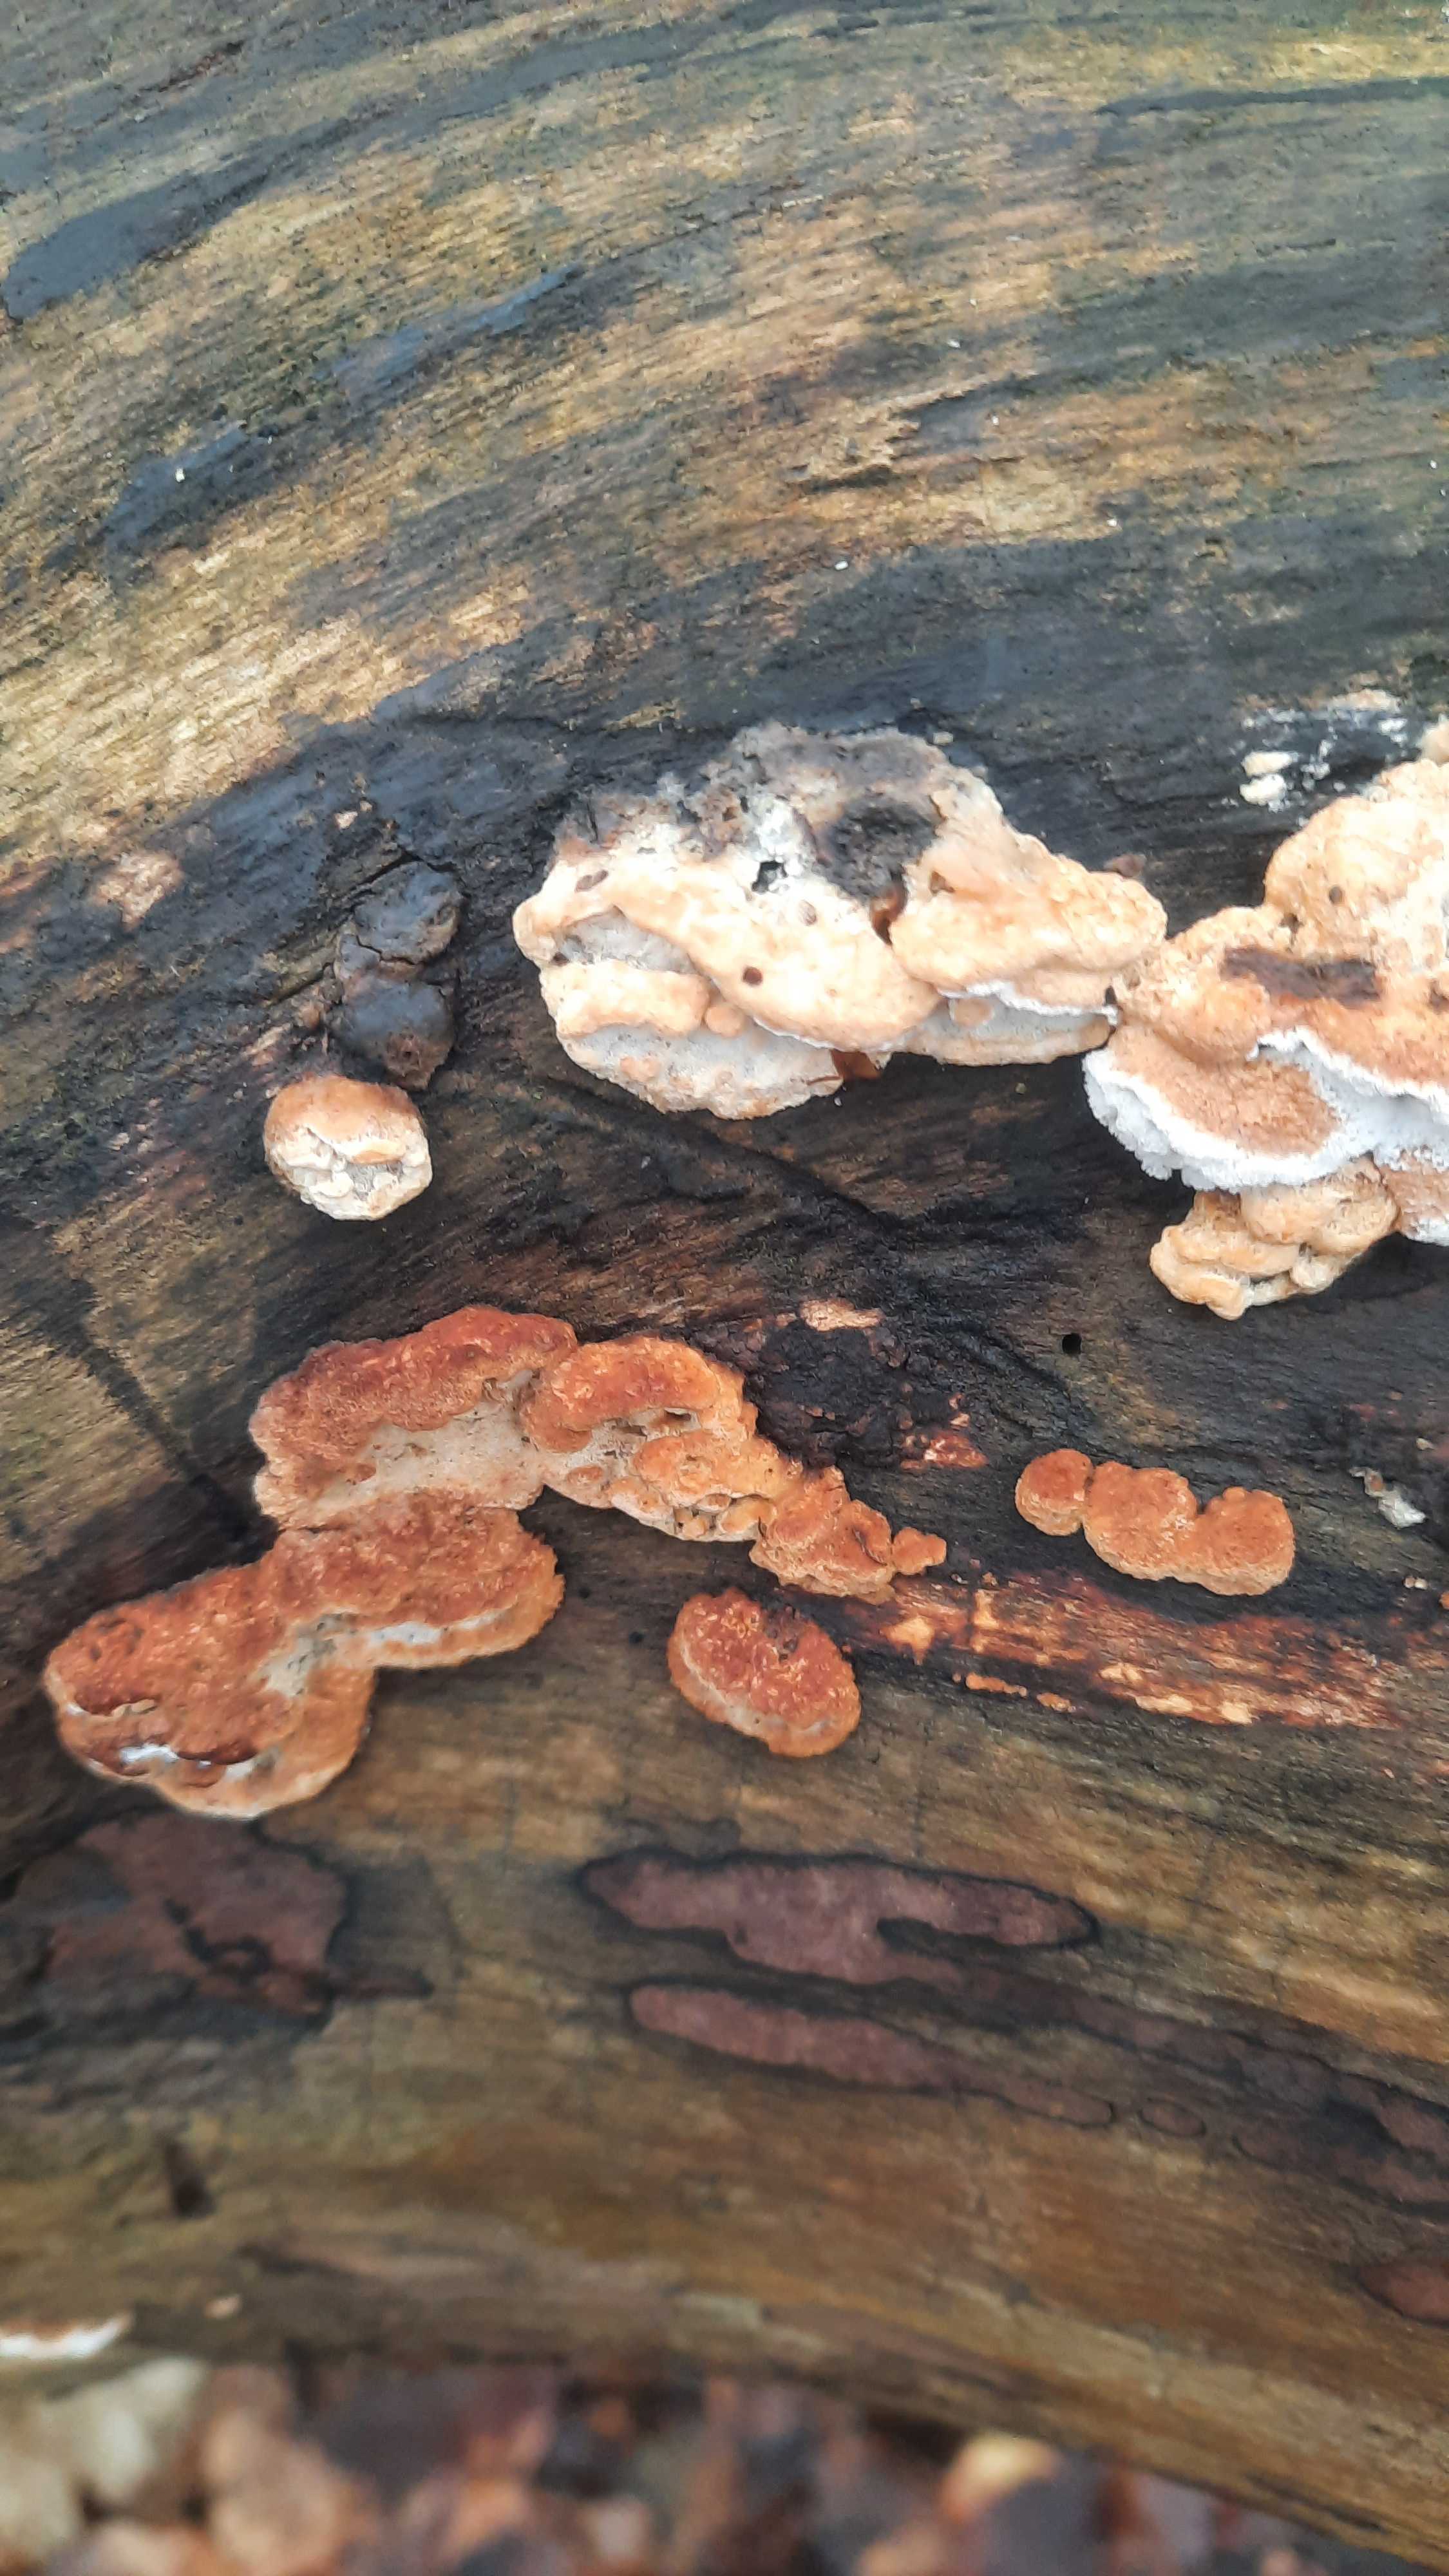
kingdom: Fungi
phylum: Basidiomycota
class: Agaricomycetes
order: Polyporales
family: Incrustoporiaceae
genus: Skeletocutis
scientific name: Skeletocutis nemoralis
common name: stor krystalporesvamp
